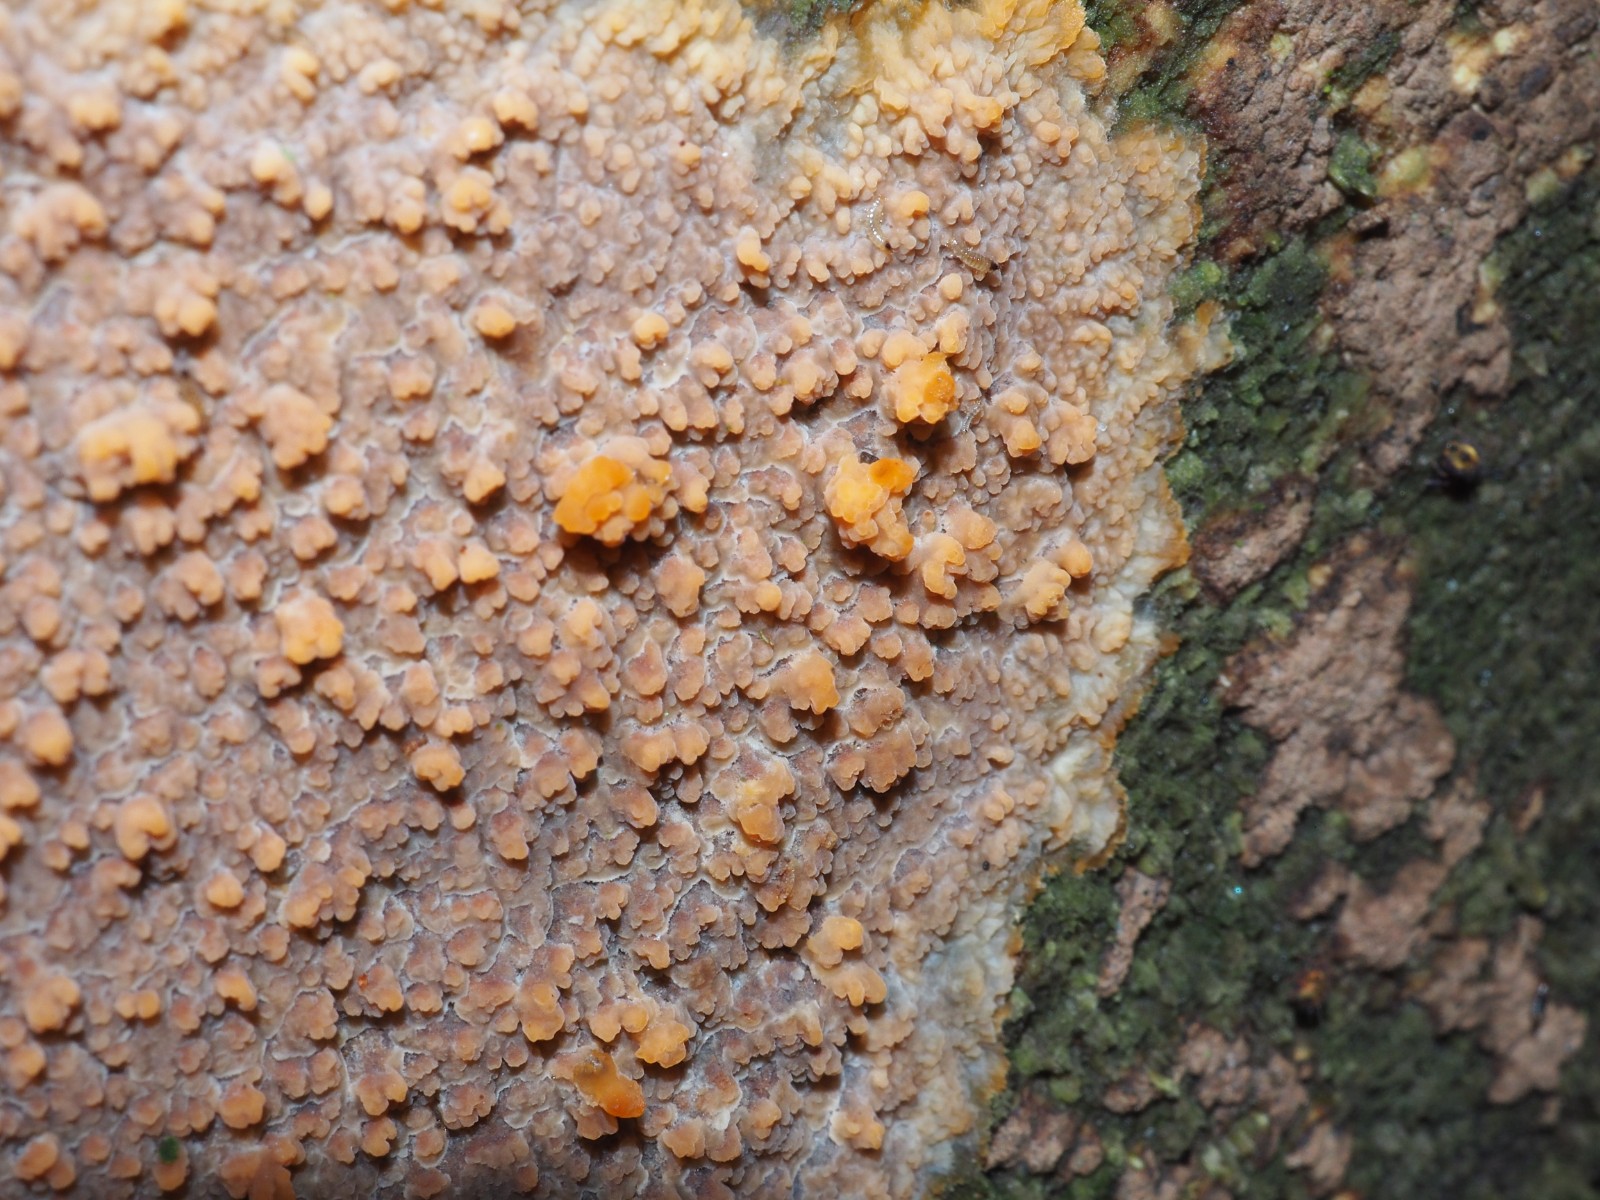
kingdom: Fungi
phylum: Basidiomycota
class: Agaricomycetes
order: Polyporales
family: Meruliaceae
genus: Phlebia
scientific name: Phlebia radiata
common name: stråle-åresvamp
